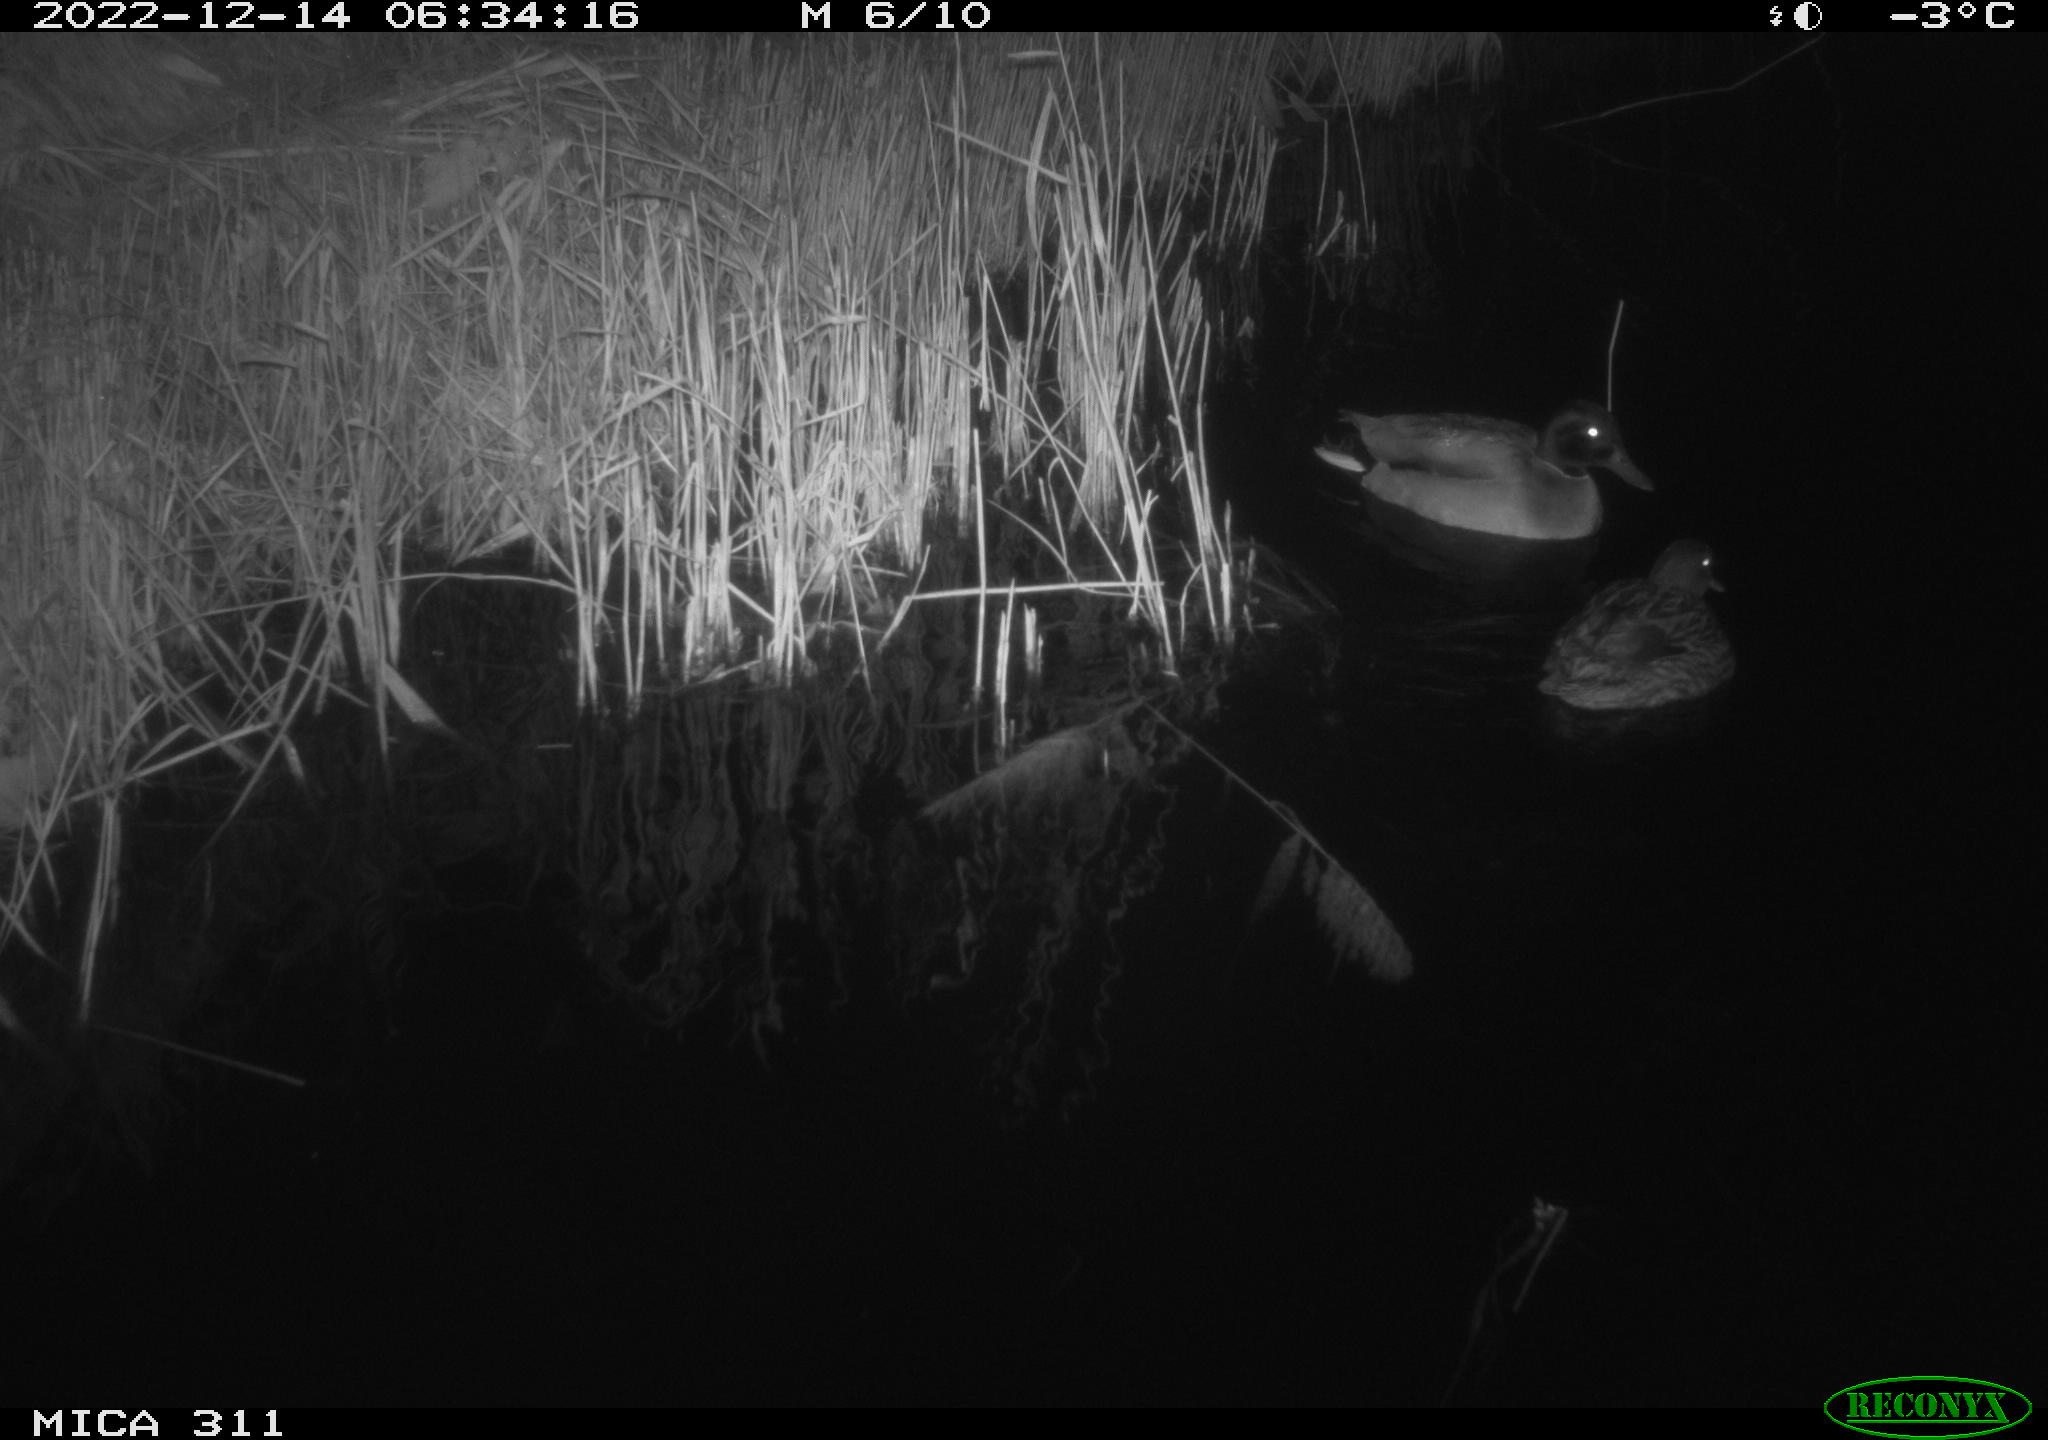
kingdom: Animalia
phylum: Chordata
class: Aves
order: Anseriformes
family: Anatidae
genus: Anas
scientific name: Anas
